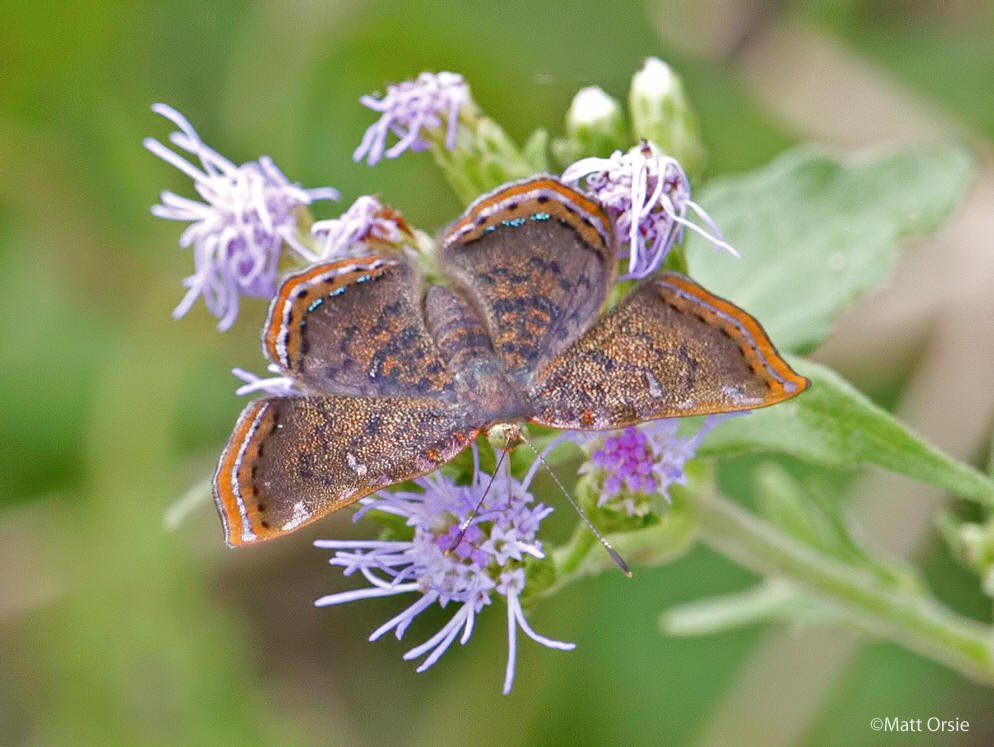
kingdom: Animalia
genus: Caria
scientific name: Caria ino
